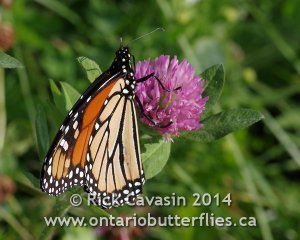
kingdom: Animalia
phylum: Arthropoda
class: Insecta
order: Lepidoptera
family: Nymphalidae
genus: Danaus
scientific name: Danaus plexippus
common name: Monarch
